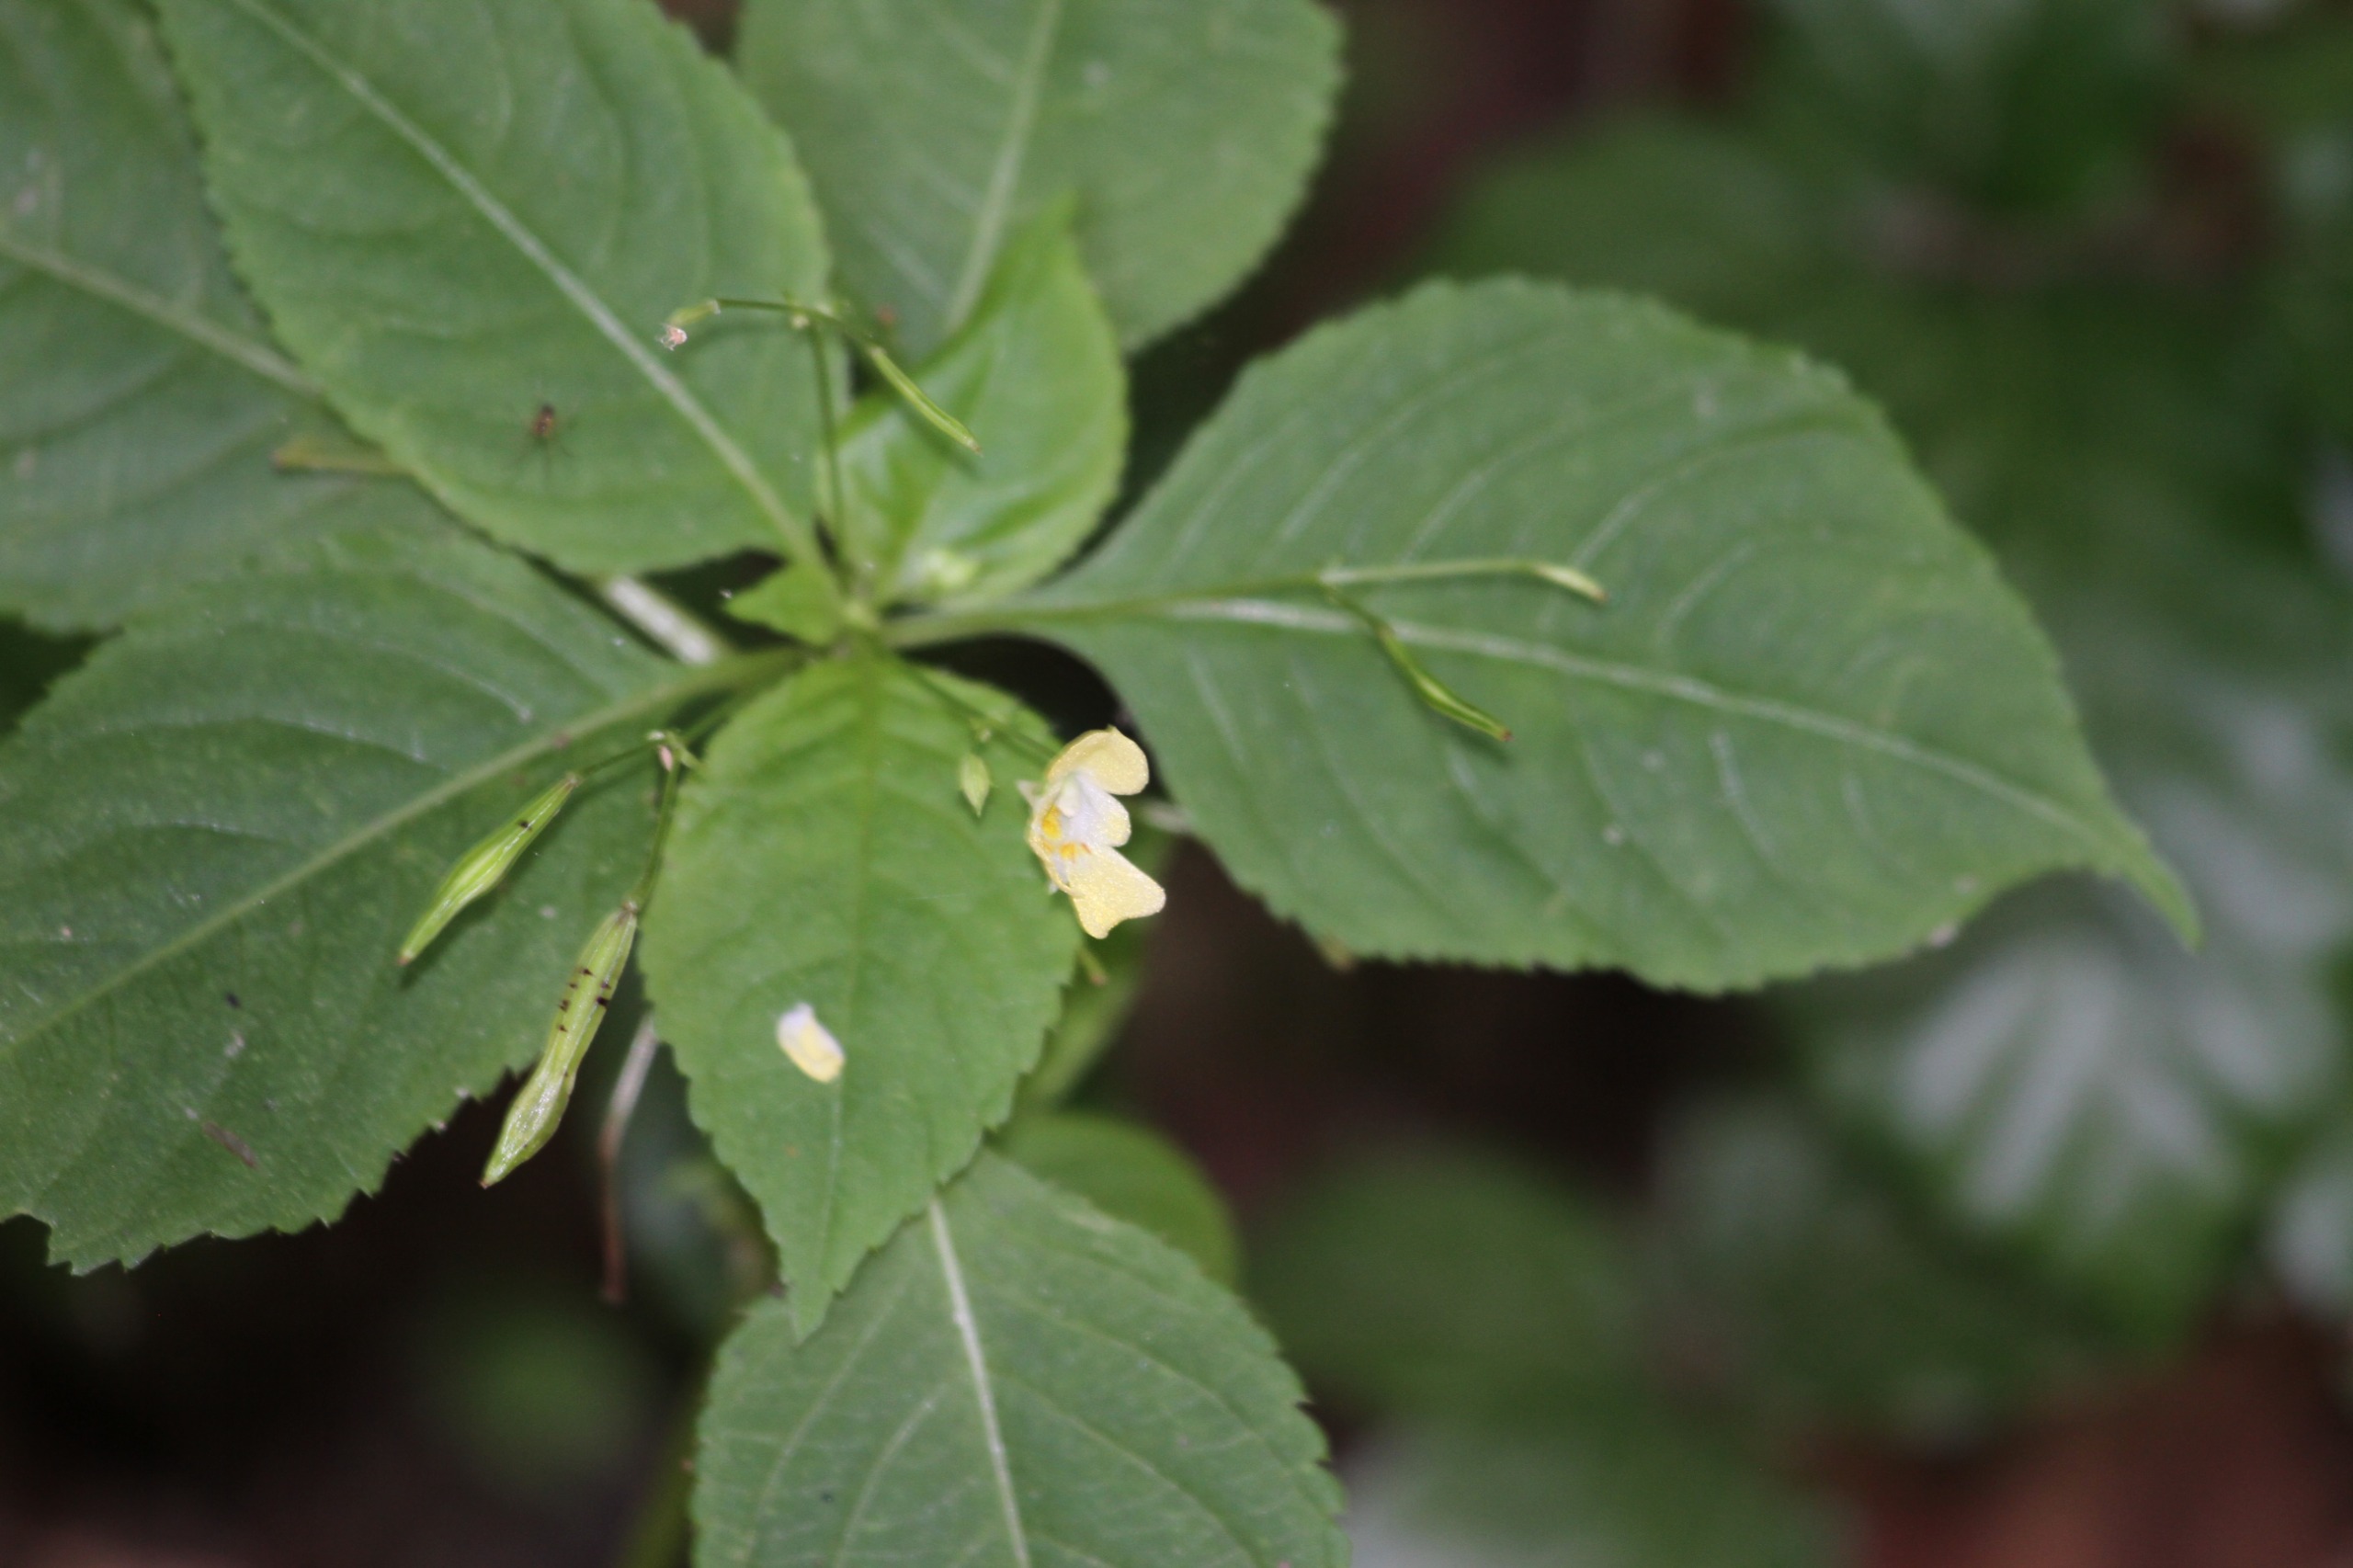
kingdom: Plantae
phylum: Tracheophyta
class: Magnoliopsida
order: Ericales
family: Balsaminaceae
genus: Impatiens
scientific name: Impatiens parviflora
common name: Småblomstret balsamin
